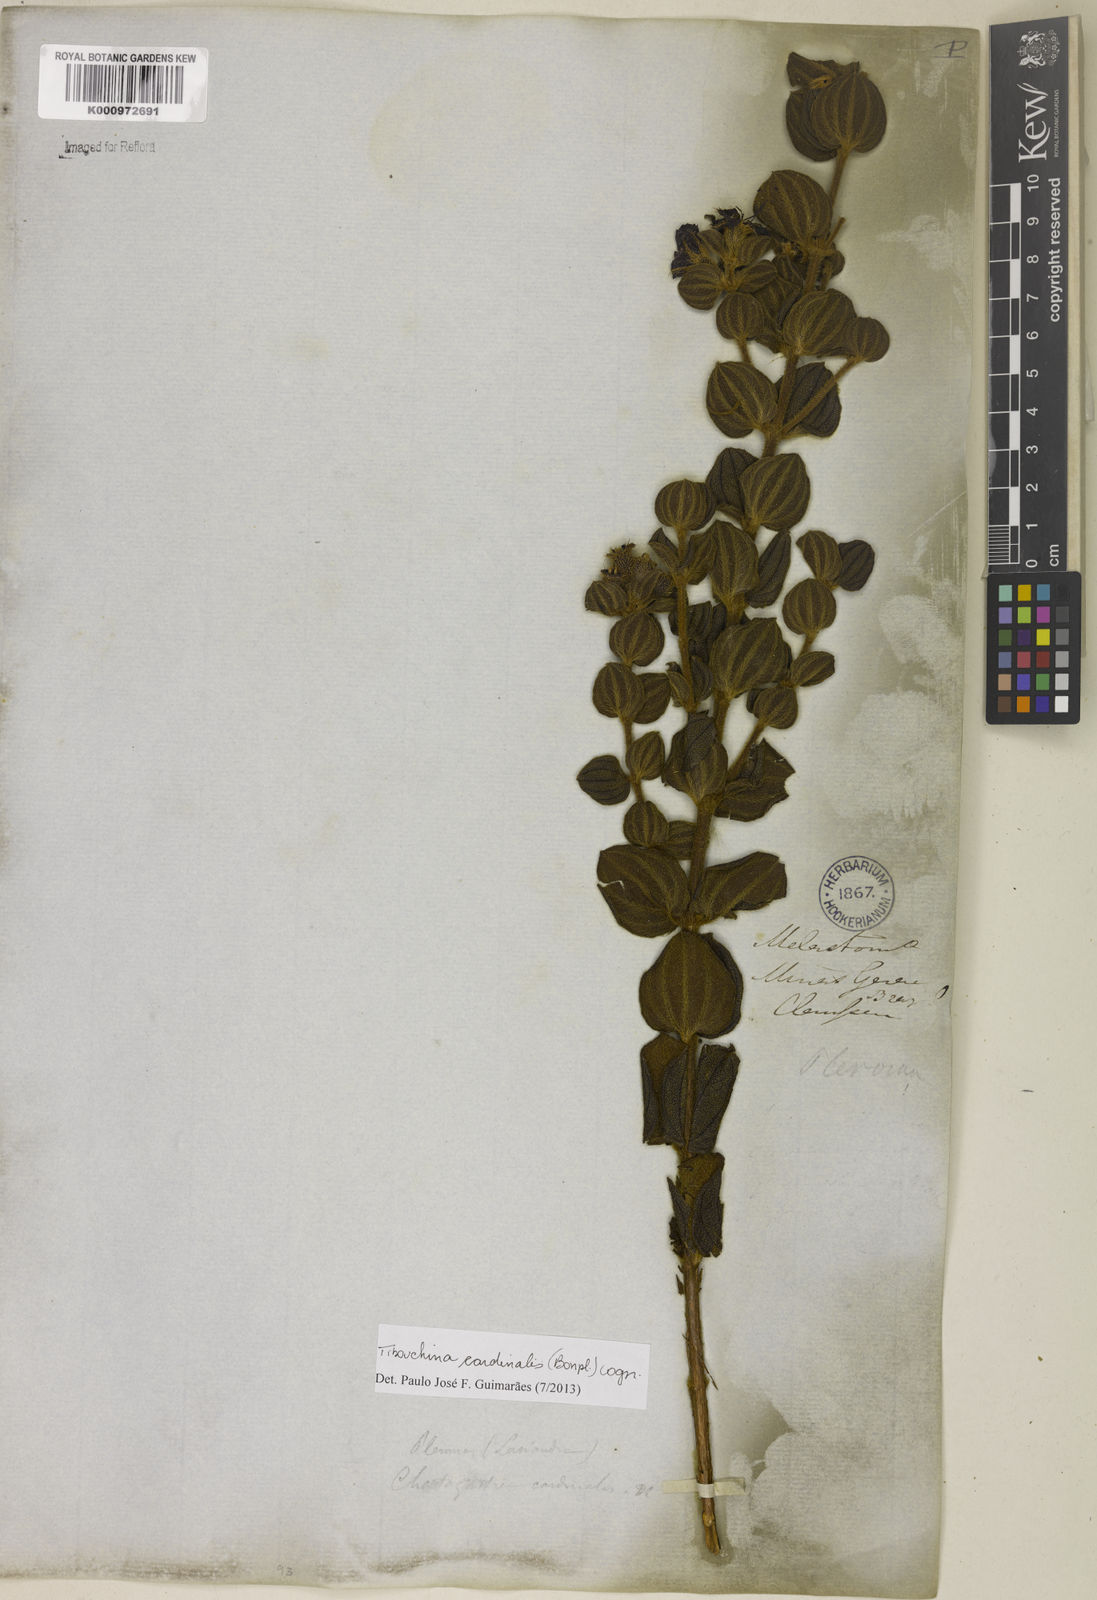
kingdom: Plantae
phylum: Tracheophyta
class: Magnoliopsida
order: Myrtales
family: Melastomataceae
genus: Chaetogastra
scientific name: Chaetogastra cardinalis
